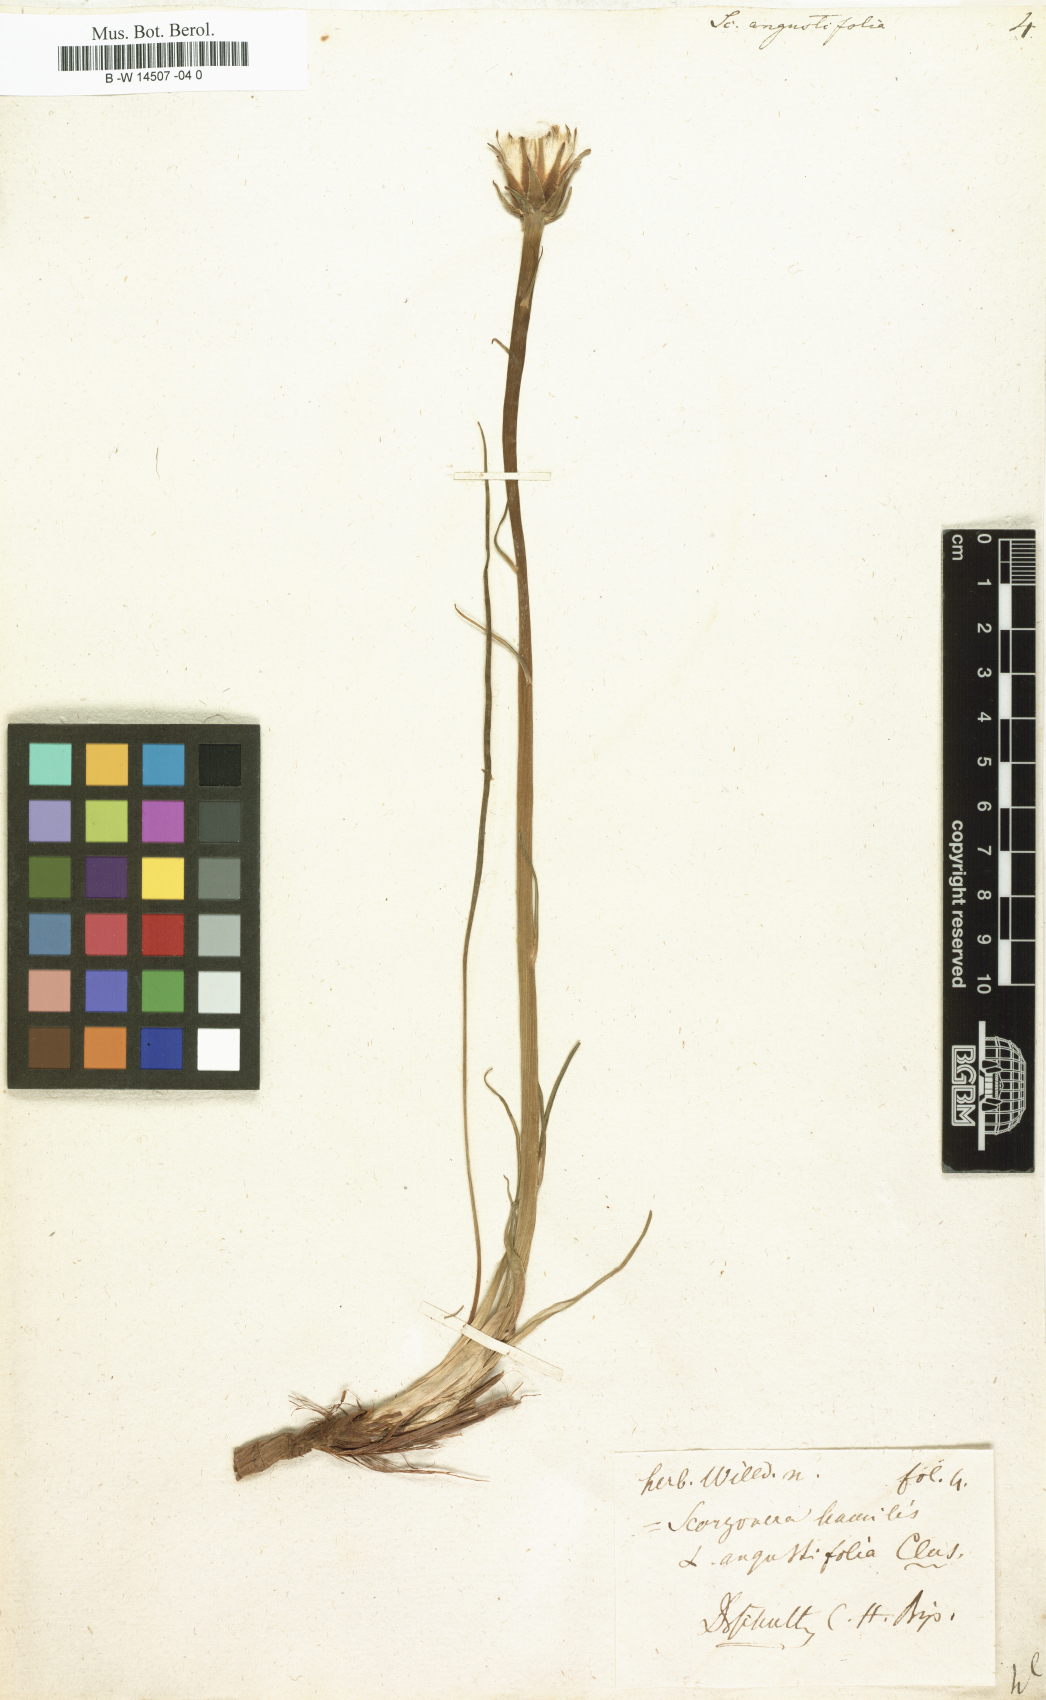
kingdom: Plantae
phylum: Tracheophyta
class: Magnoliopsida
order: Asterales
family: Asteraceae
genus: Scorzonera
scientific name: Scorzonera angustifolia
